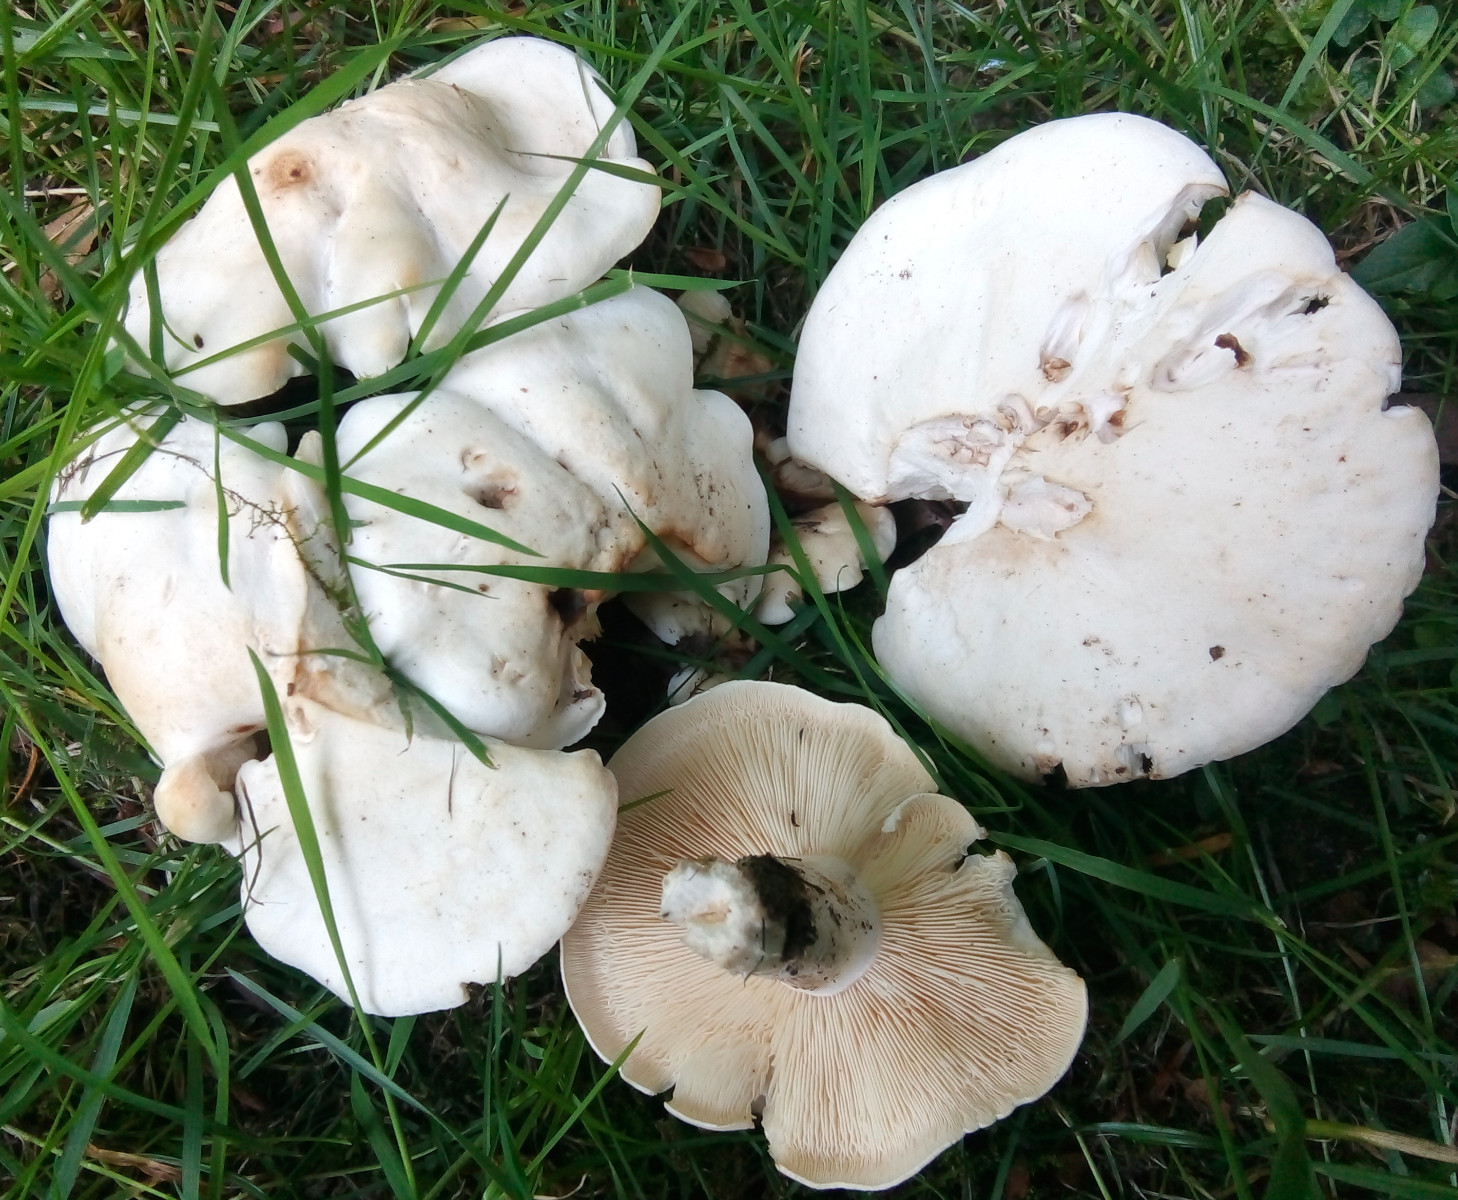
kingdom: Fungi
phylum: Basidiomycota
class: Agaricomycetes
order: Agaricales
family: Lyophyllaceae
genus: Calocybe
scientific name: Calocybe gambosa
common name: vårmusseron
